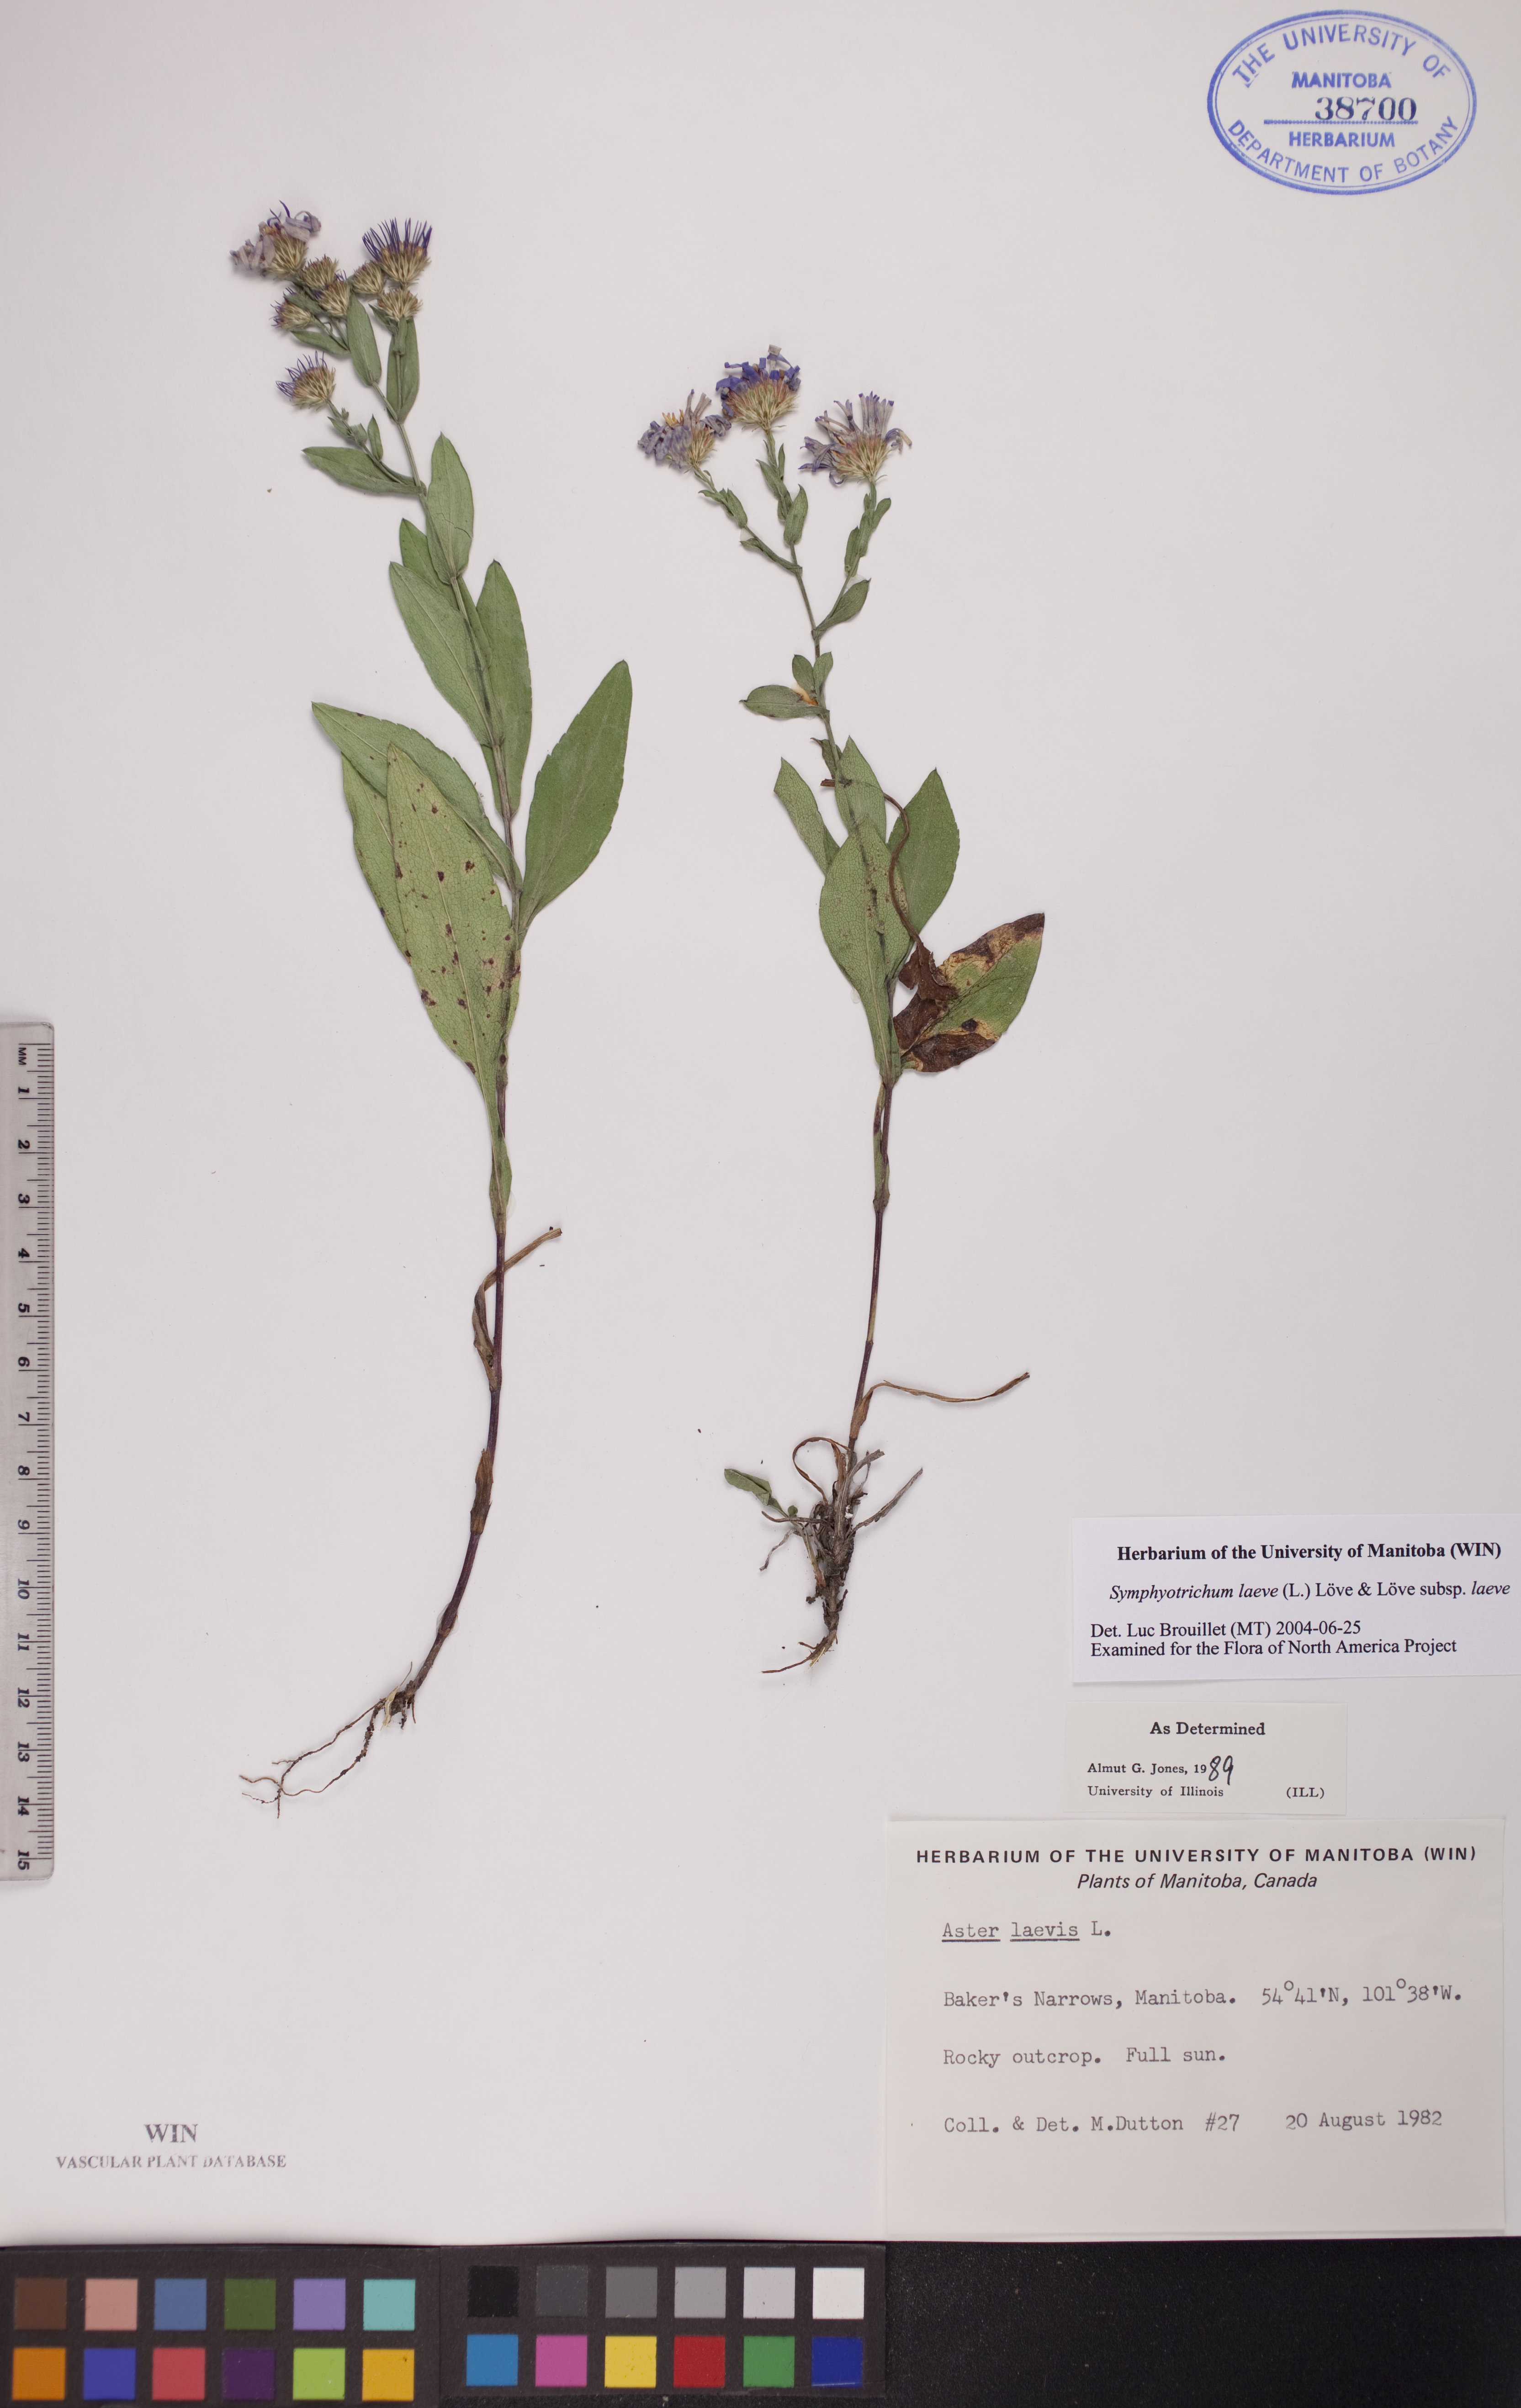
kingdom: Plantae
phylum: Tracheophyta
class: Magnoliopsida
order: Asterales
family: Asteraceae
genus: Symphyotrichum
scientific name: Symphyotrichum laeve
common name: Glaucous aster
